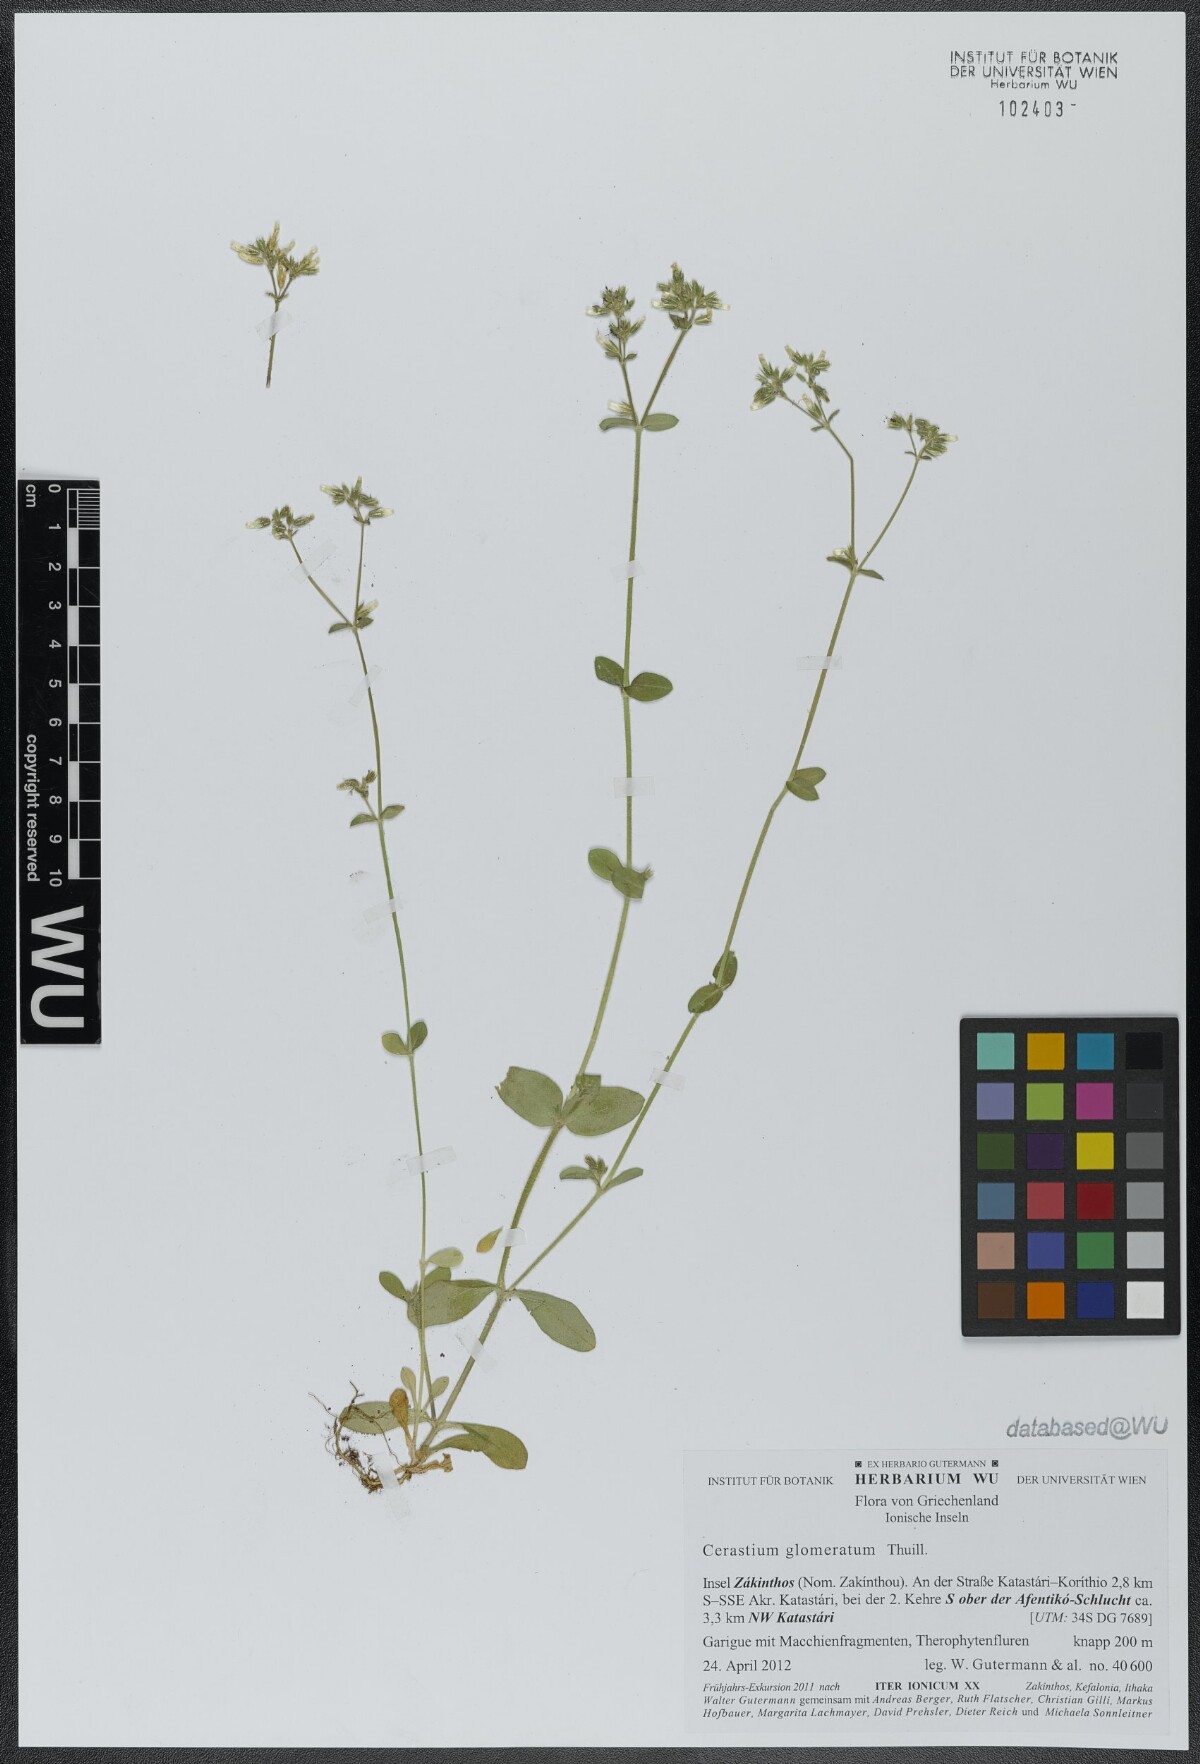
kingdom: Plantae
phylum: Tracheophyta
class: Magnoliopsida
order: Caryophyllales
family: Caryophyllaceae
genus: Cerastium
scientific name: Cerastium glomeratum
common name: Sticky chickweed
